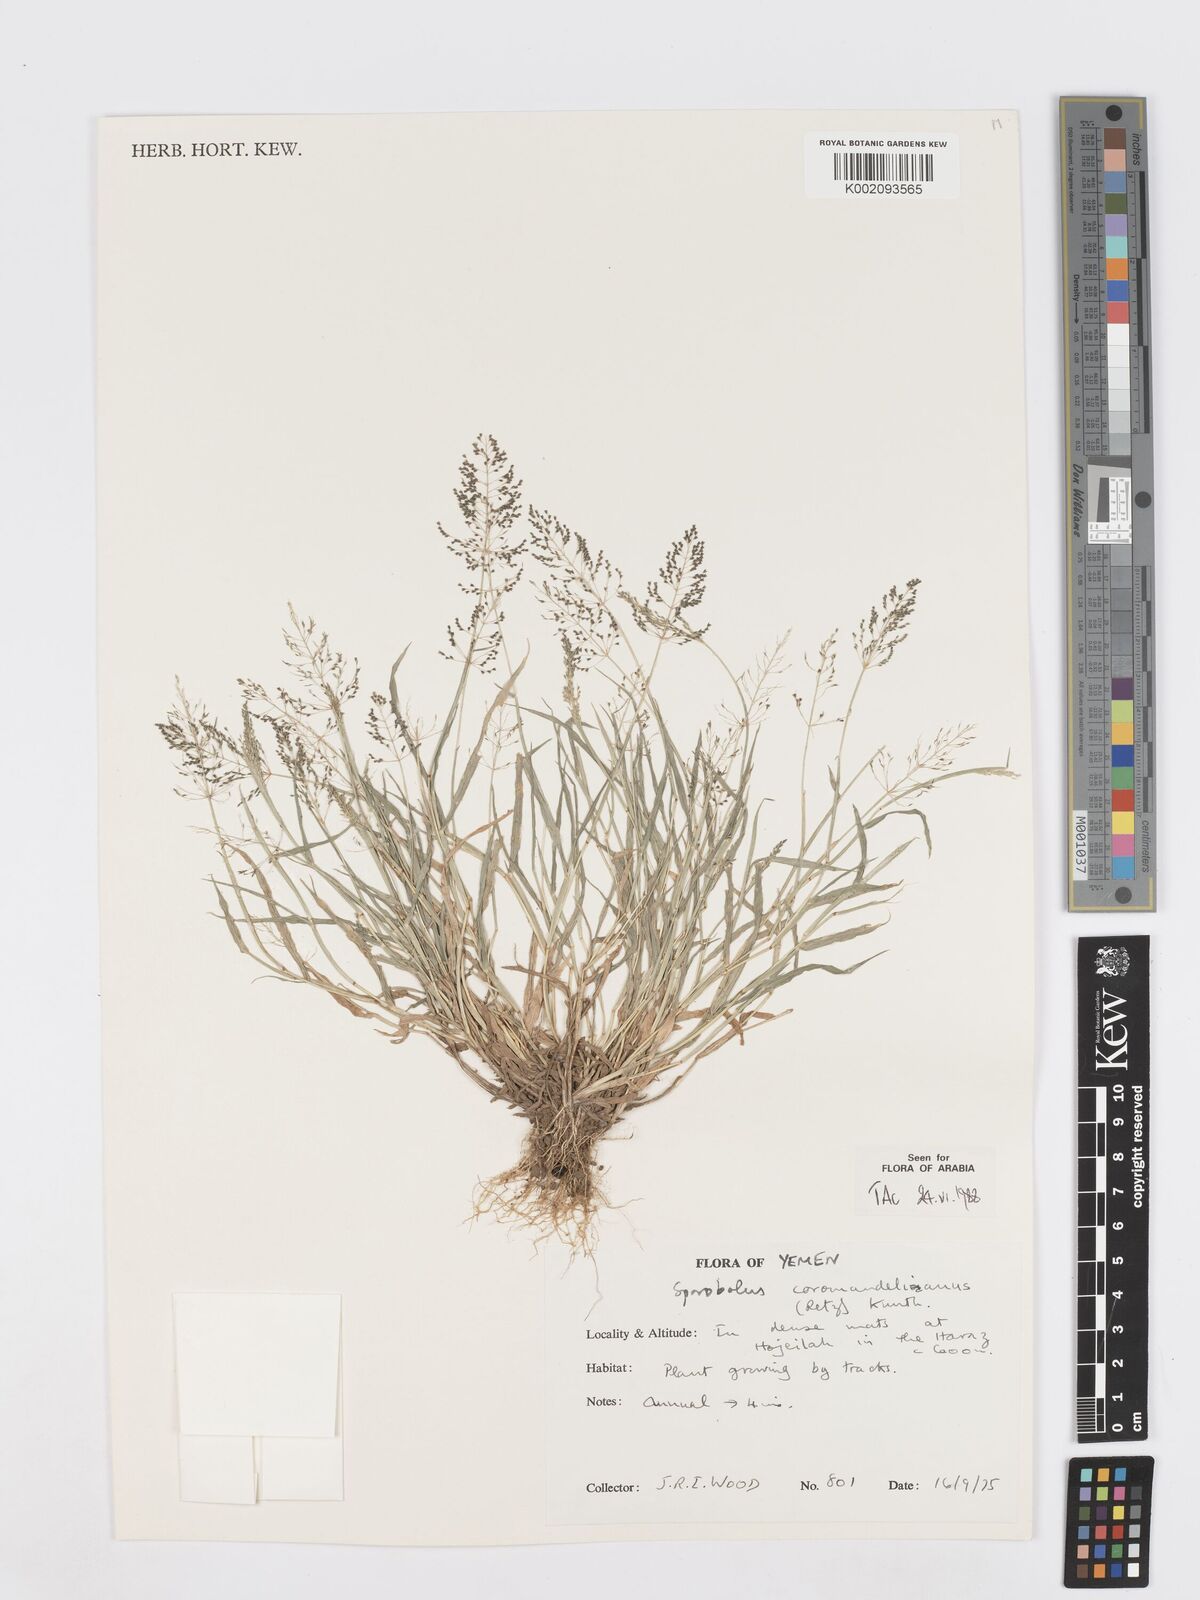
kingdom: Plantae
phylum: Tracheophyta
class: Liliopsida
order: Poales
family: Poaceae
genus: Sporobolus
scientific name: Sporobolus coromandelianus
